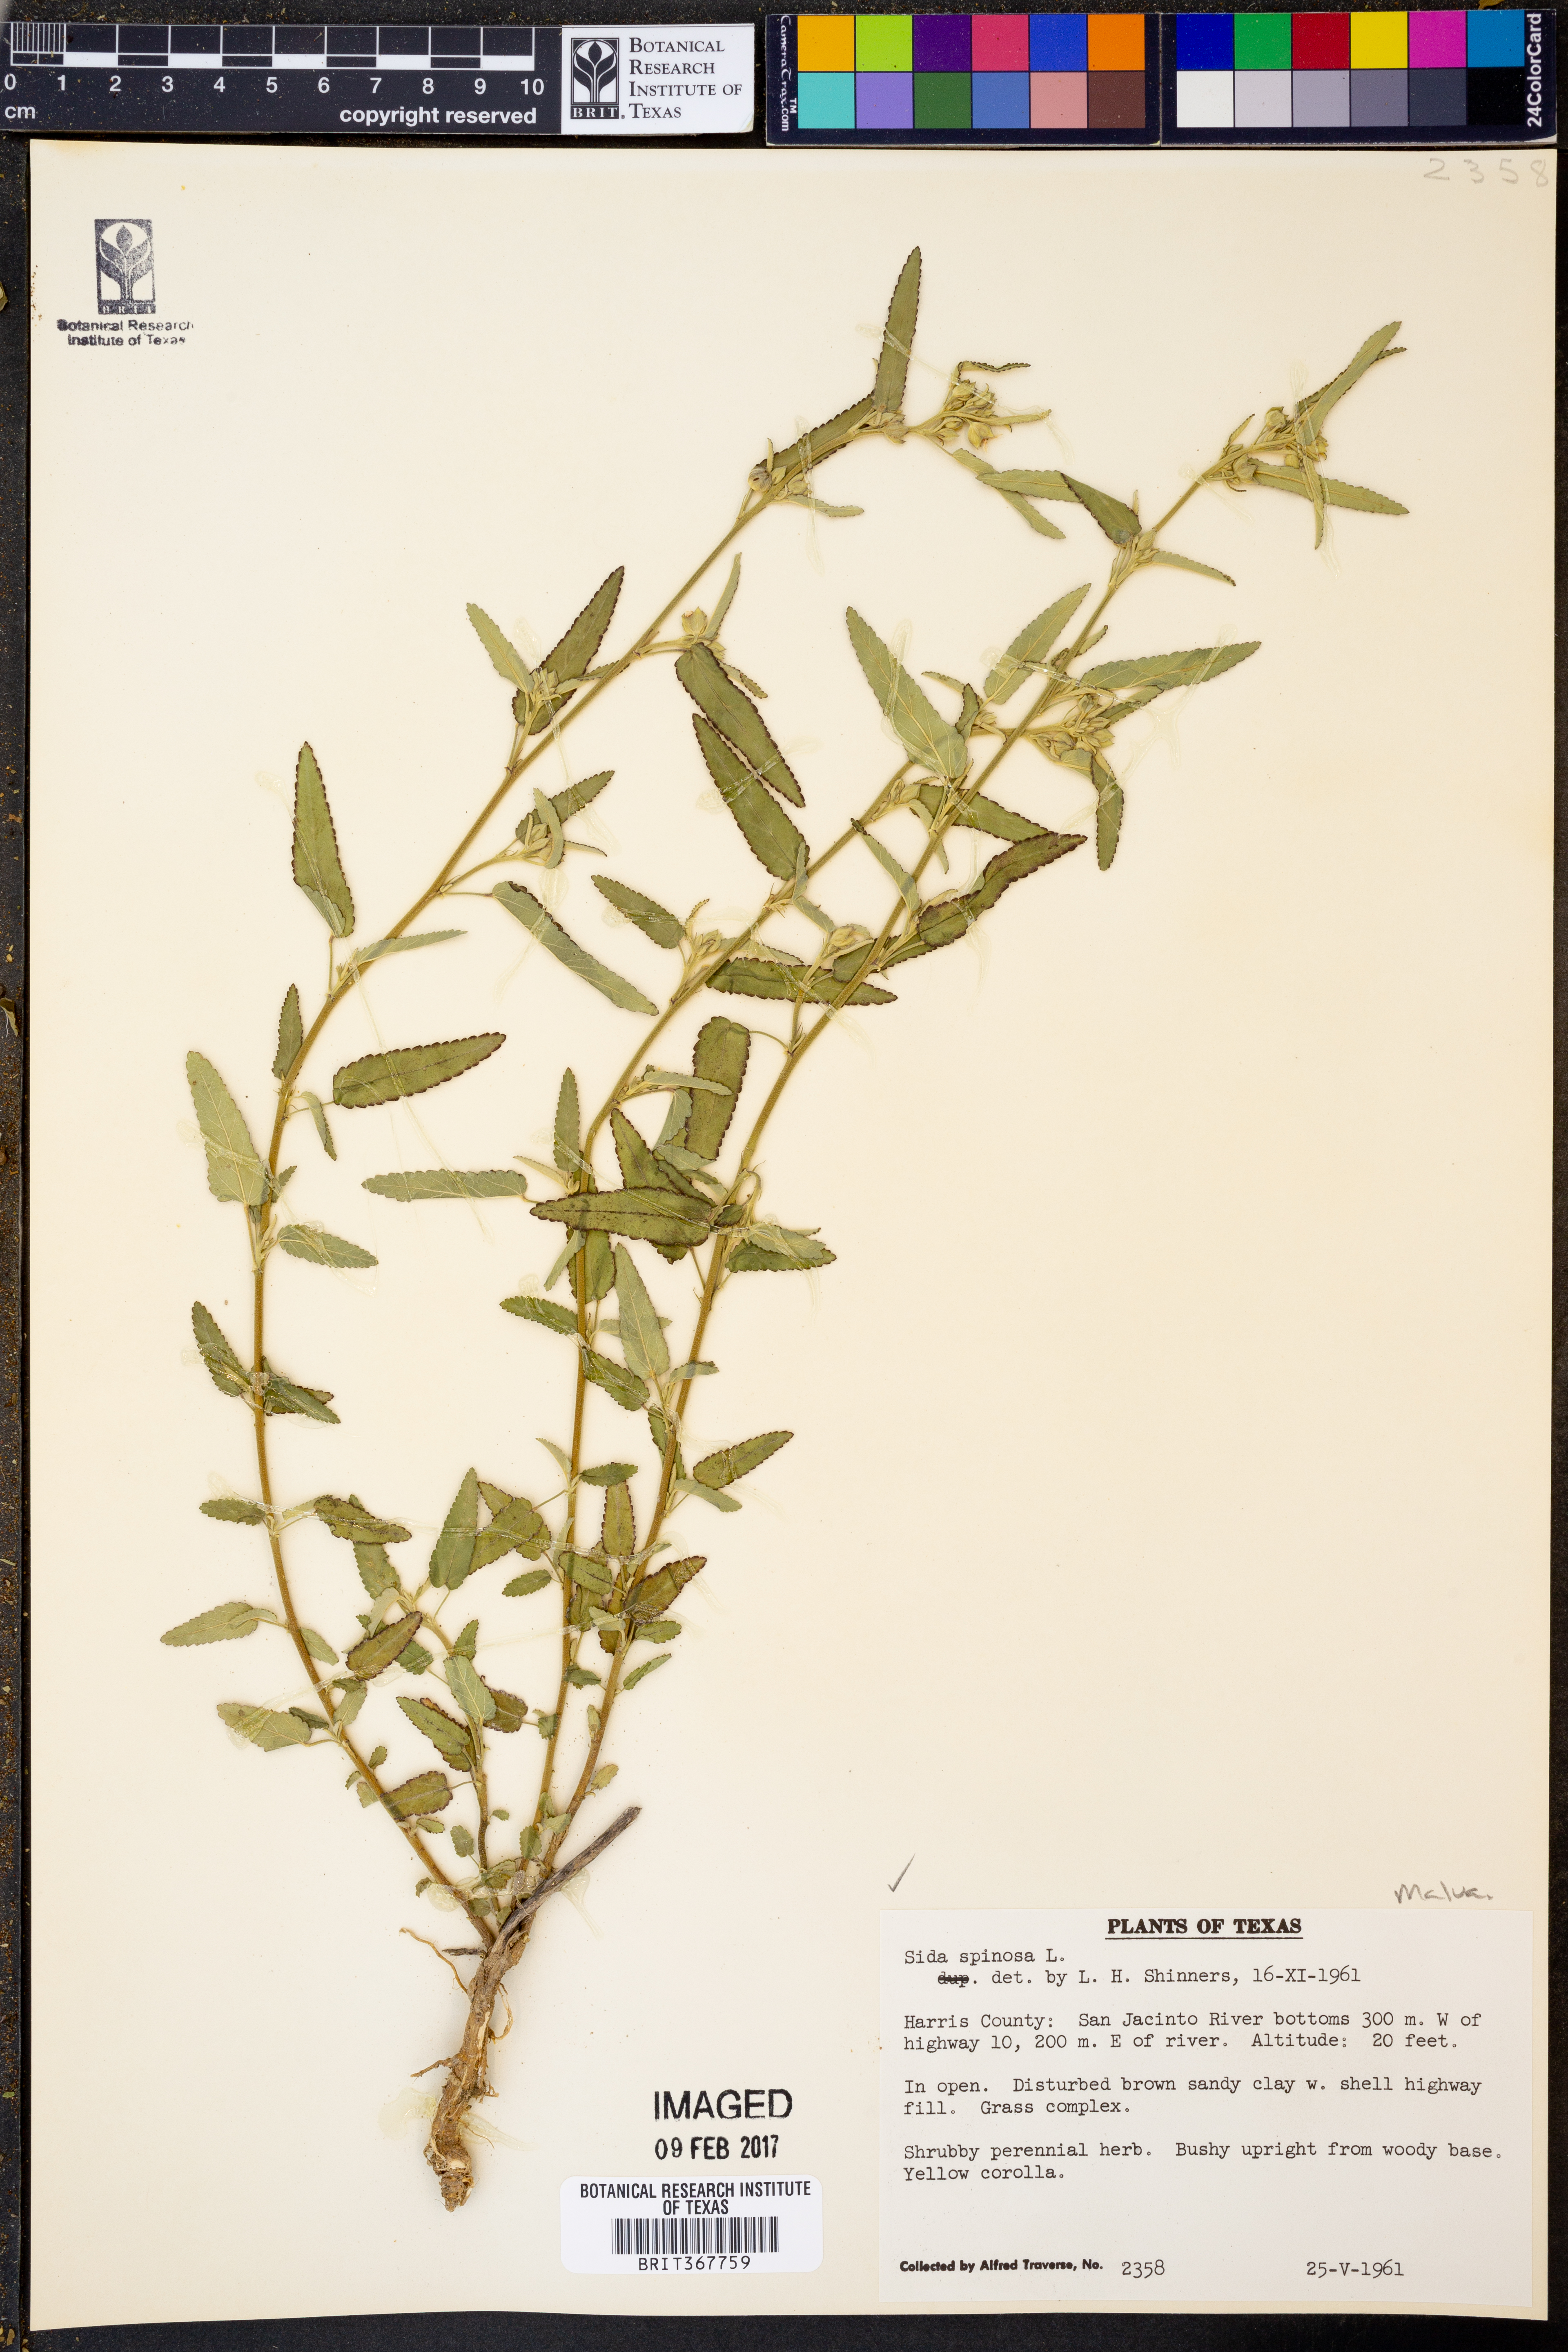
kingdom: Plantae
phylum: Tracheophyta
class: Magnoliopsida
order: Malvales
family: Malvaceae
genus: Sida
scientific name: Sida spinosa
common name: Prickly fanpetals
